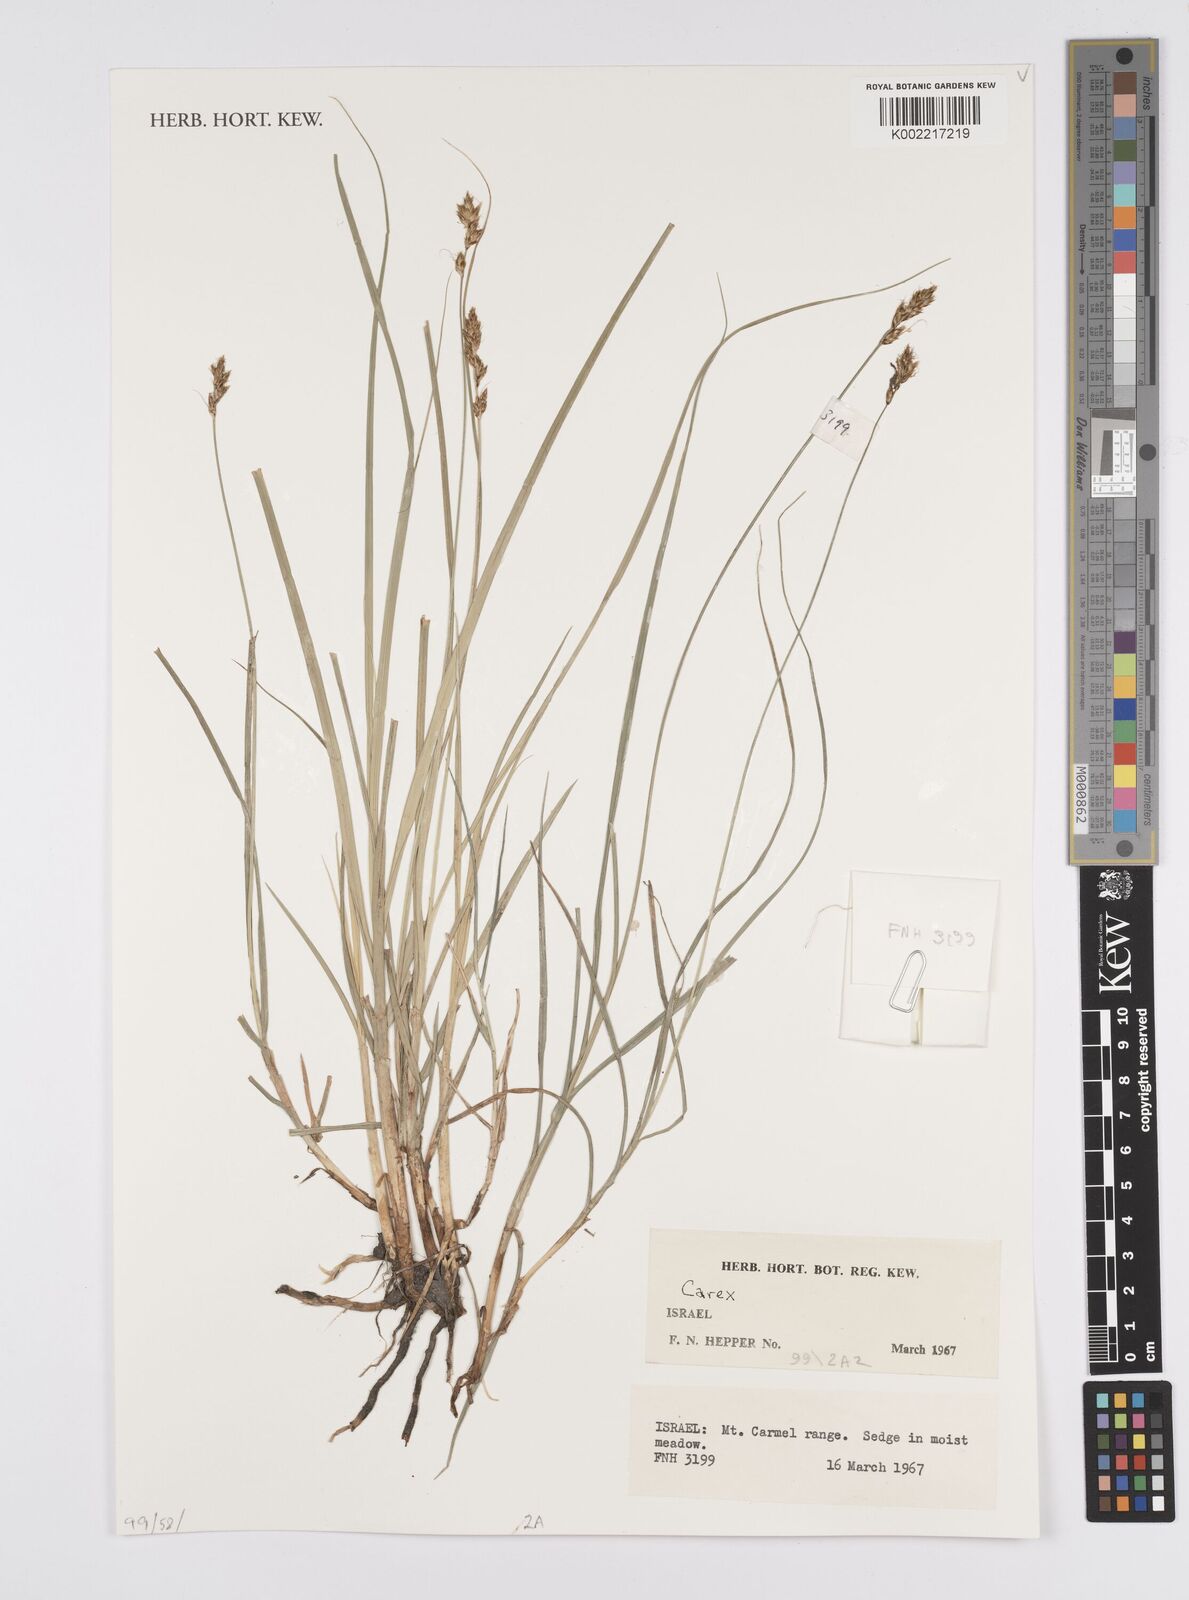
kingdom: Plantae
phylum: Tracheophyta
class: Liliopsida
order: Poales
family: Cyperaceae
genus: Carex
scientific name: Carex
